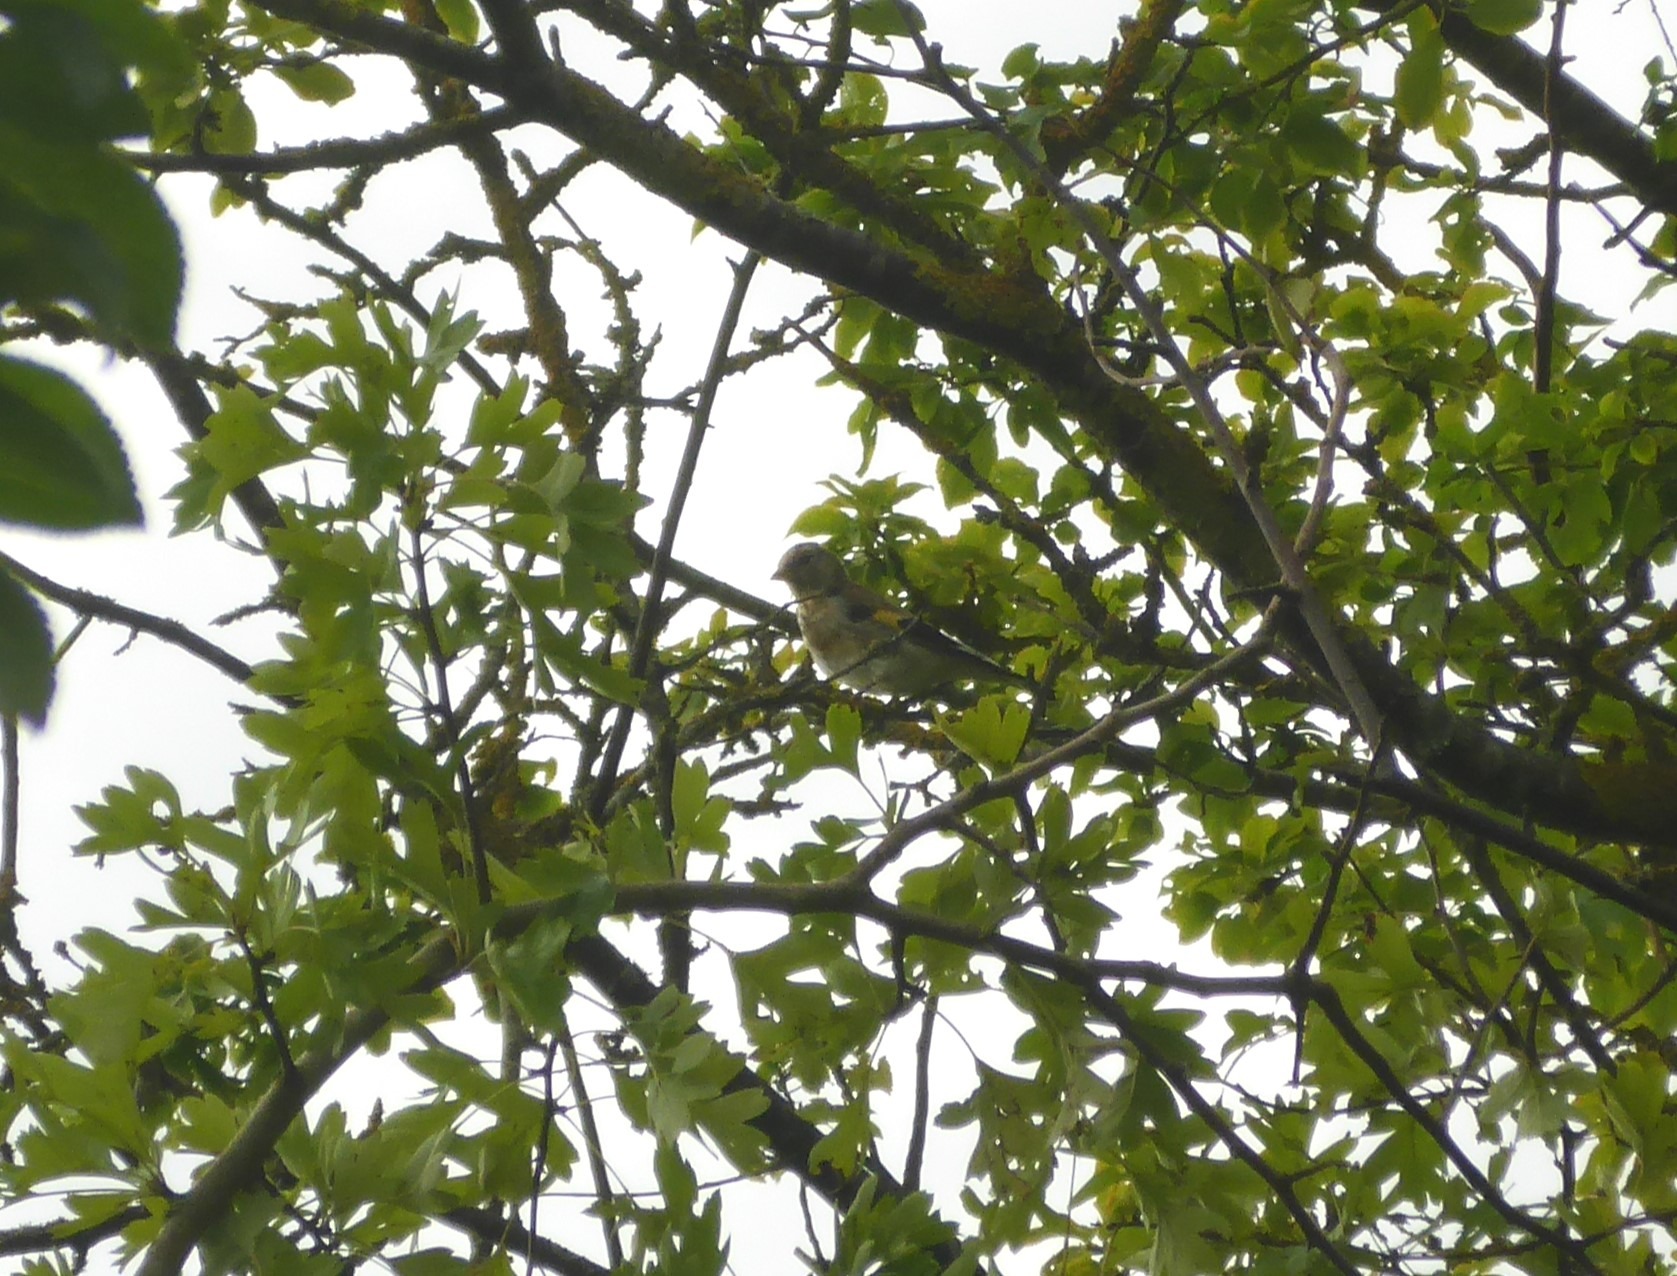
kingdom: Animalia
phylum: Chordata
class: Aves
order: Passeriformes
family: Fringillidae
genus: Carduelis
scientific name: Carduelis carduelis
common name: Stillits
